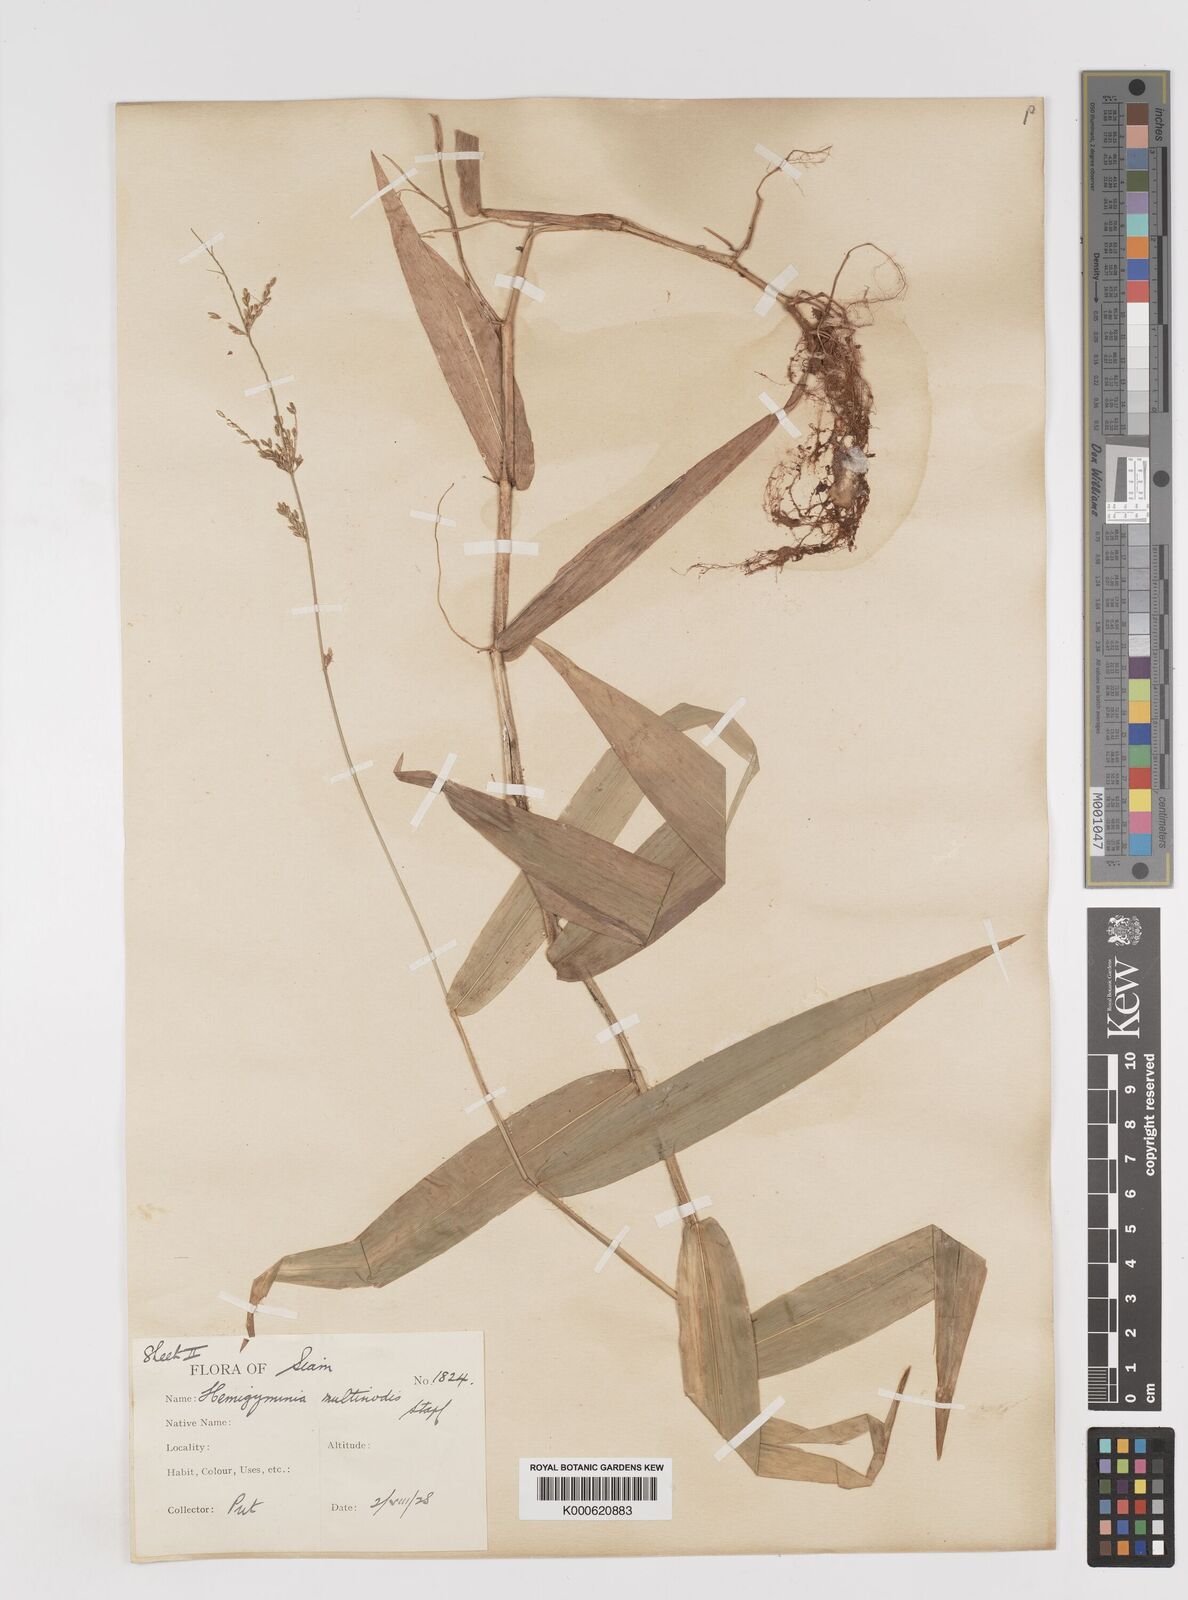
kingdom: Plantae
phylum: Tracheophyta
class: Liliopsida
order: Poales
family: Poaceae
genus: Ottochloa
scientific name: Ottochloa nodosa
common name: Slender-panic grass
